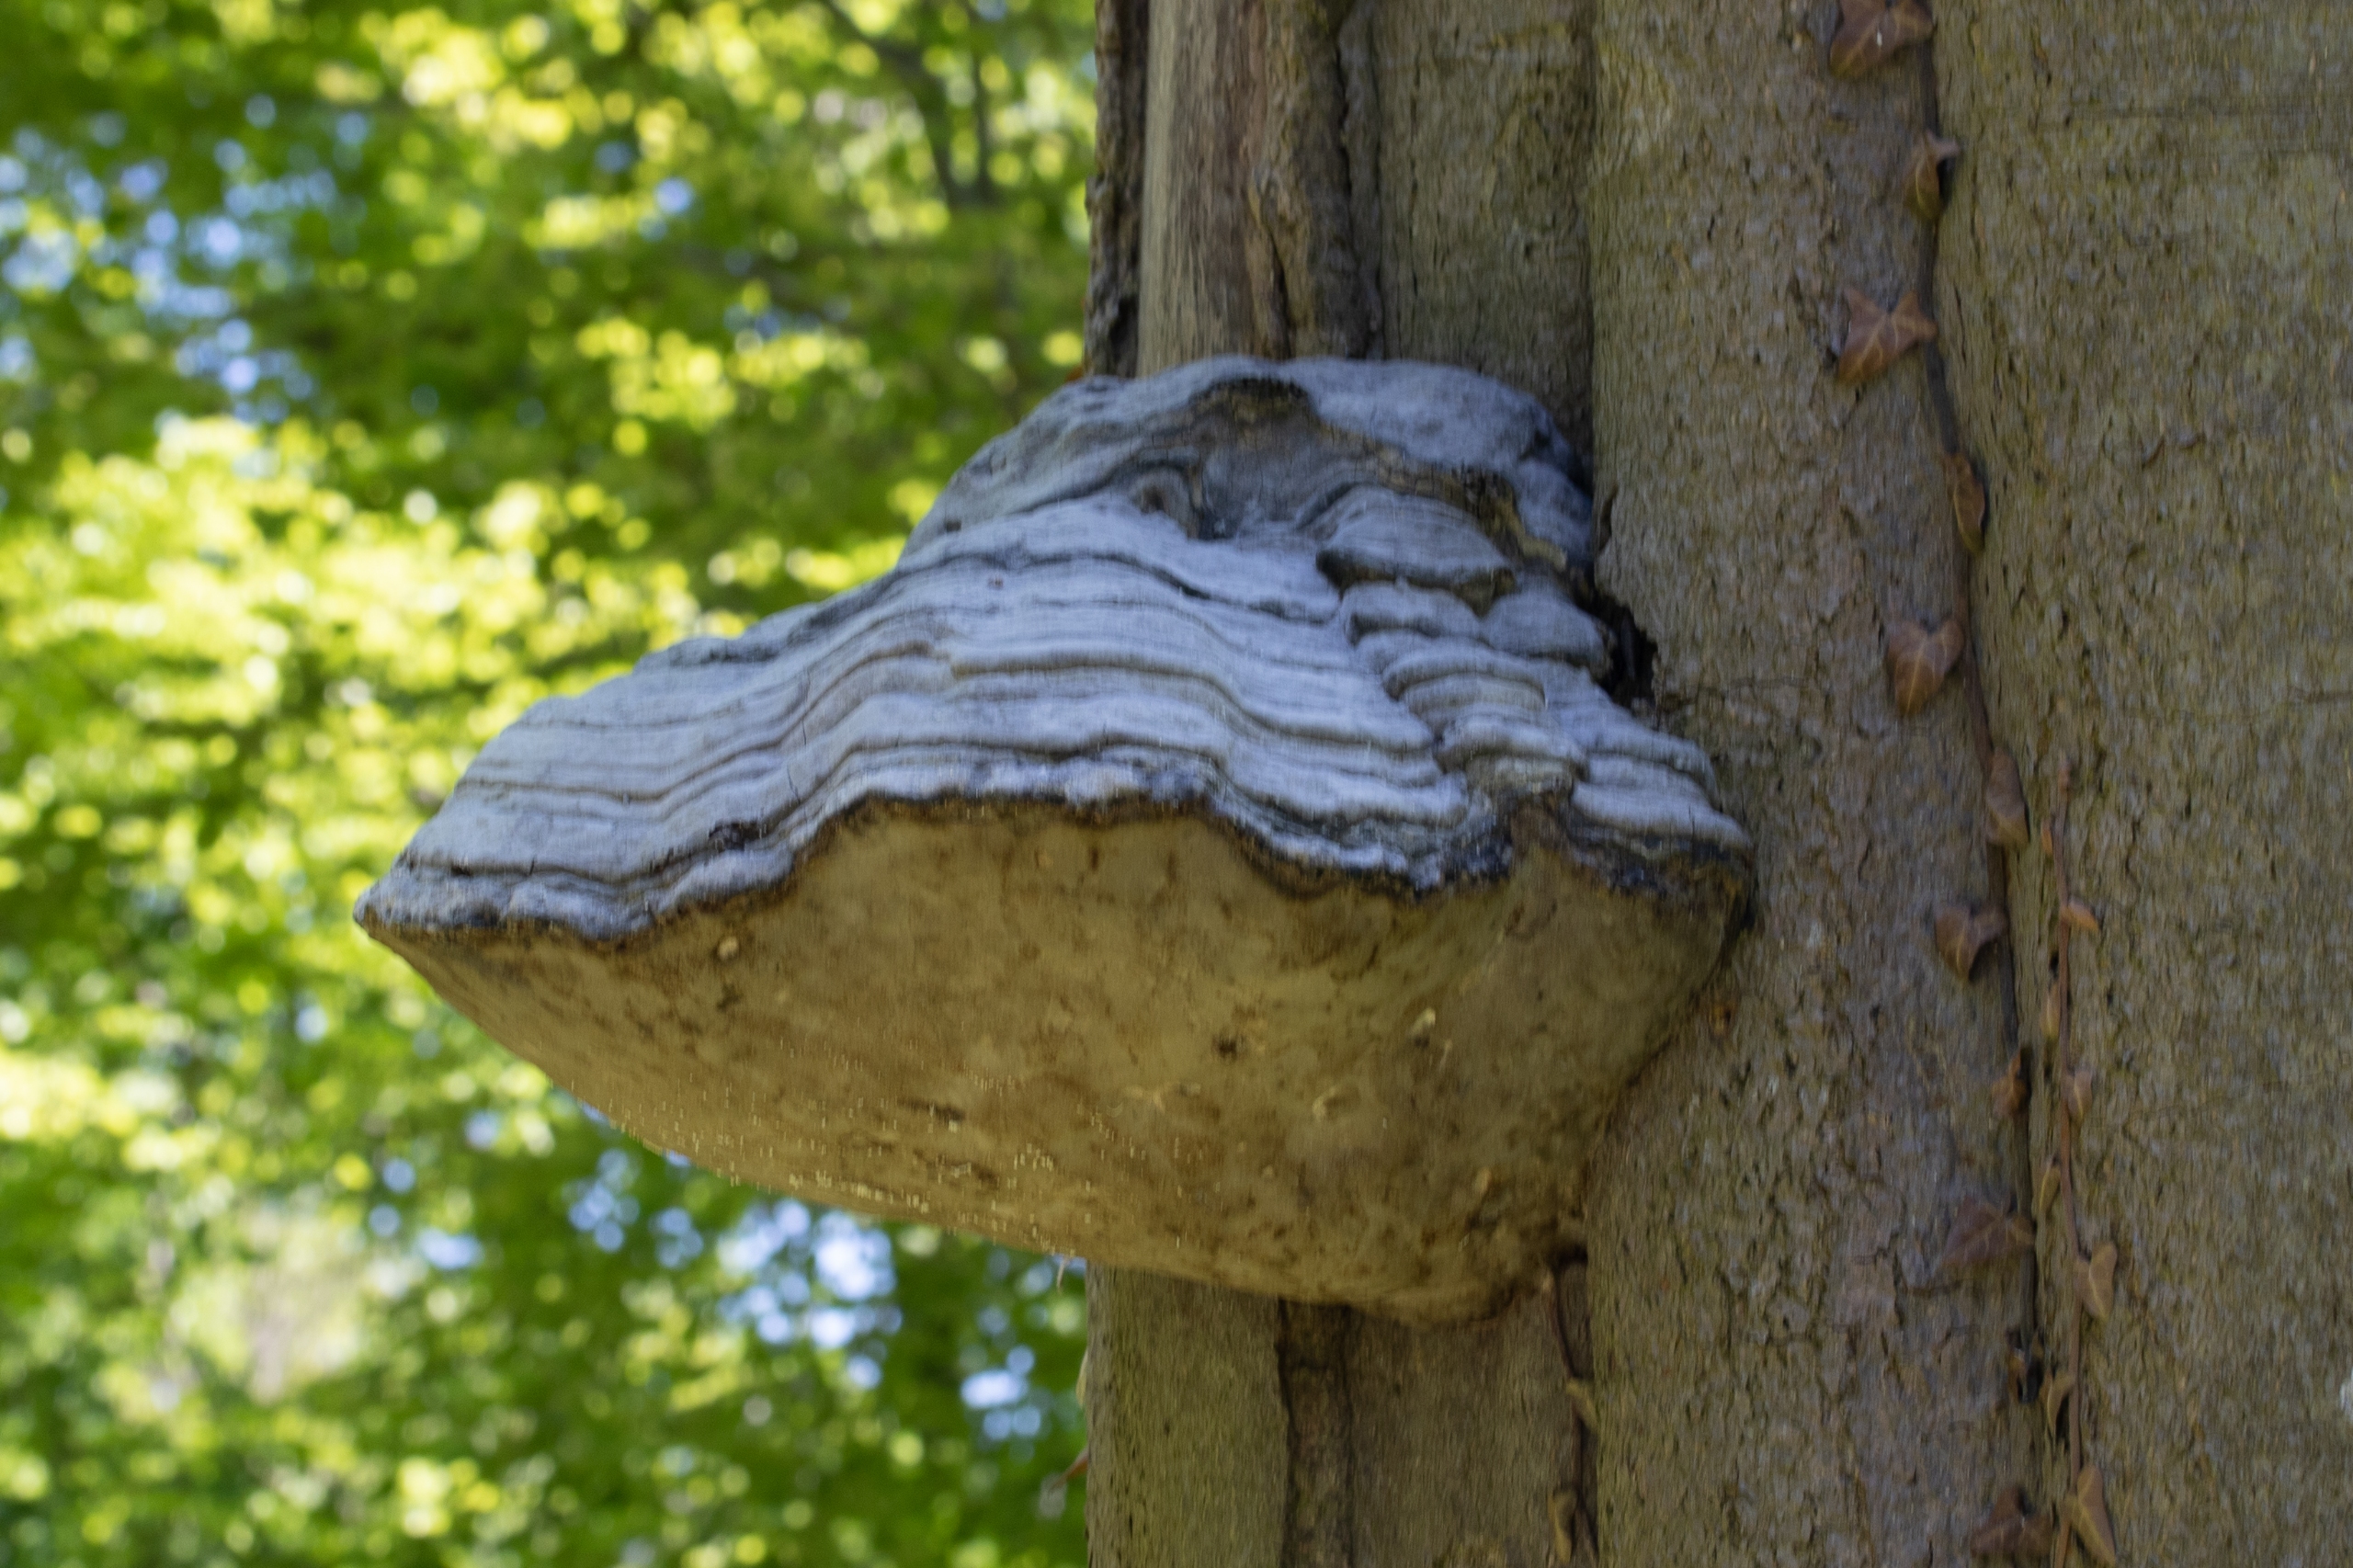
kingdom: Fungi
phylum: Basidiomycota
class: Agaricomycetes
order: Polyporales
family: Polyporaceae
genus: Fomes
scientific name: Fomes fomentarius
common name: Tøndersvamp
